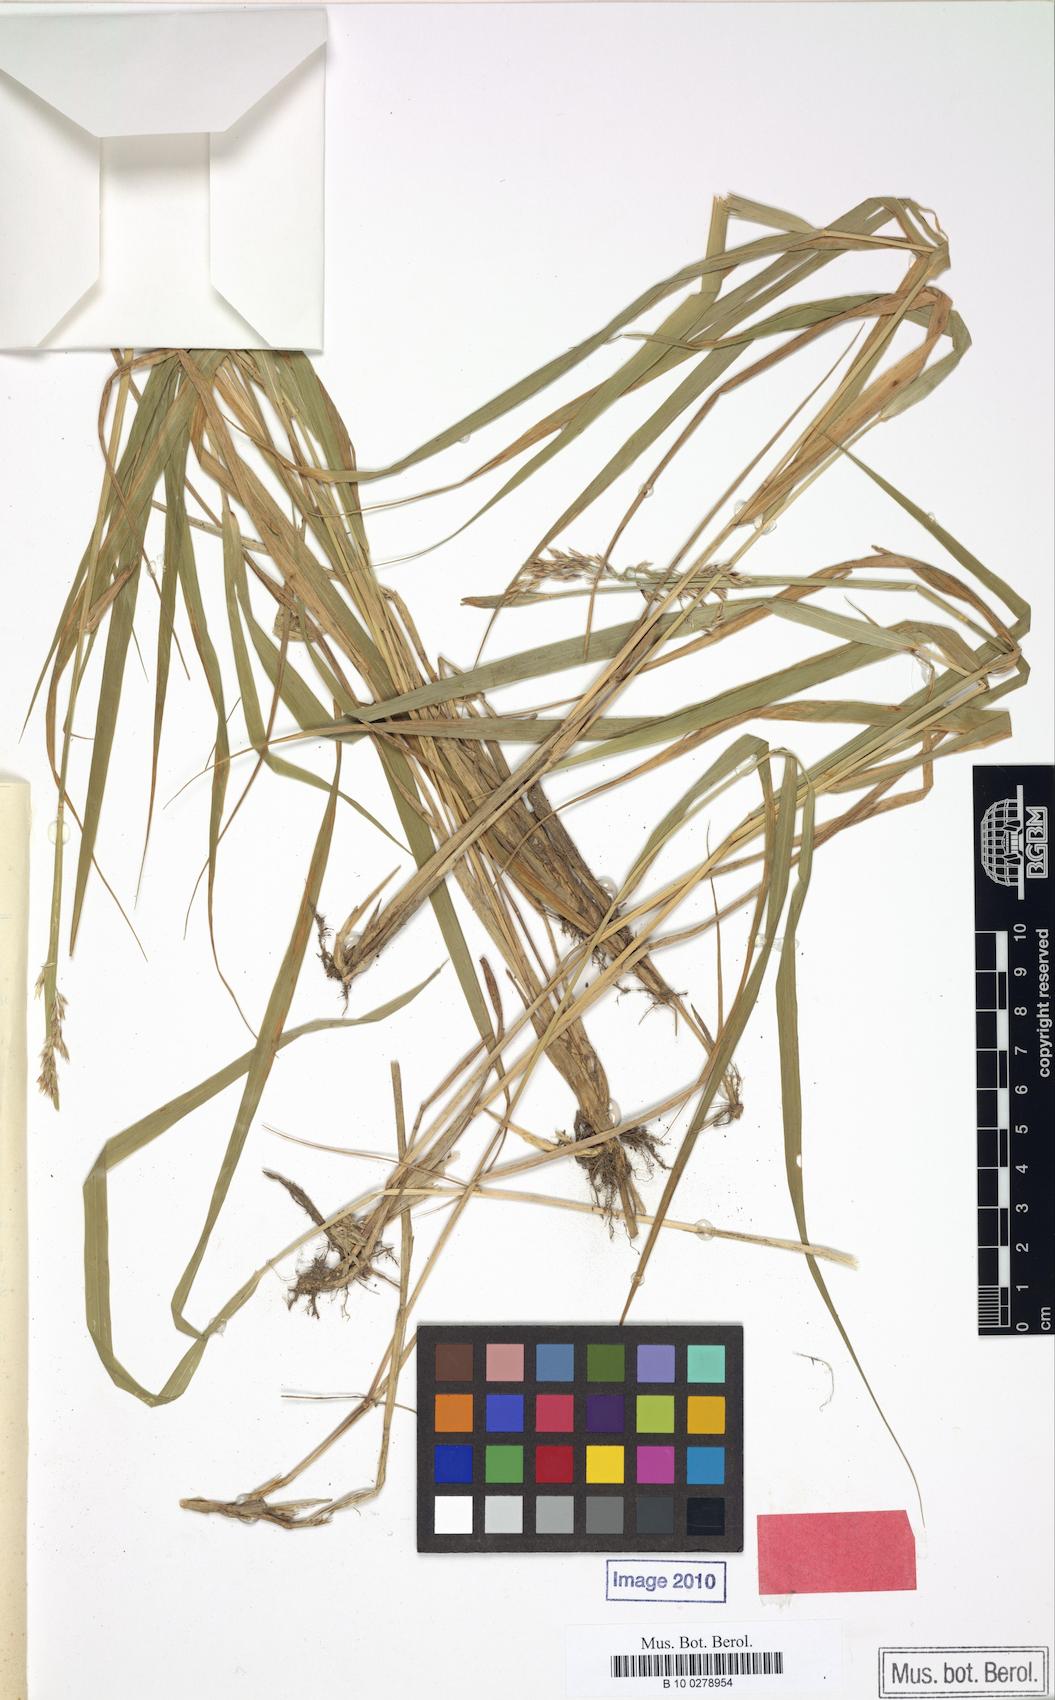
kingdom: Plantae
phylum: Tracheophyta
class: Liliopsida
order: Poales
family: Poaceae
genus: Calamagrostis
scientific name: Calamagrostis villosa
